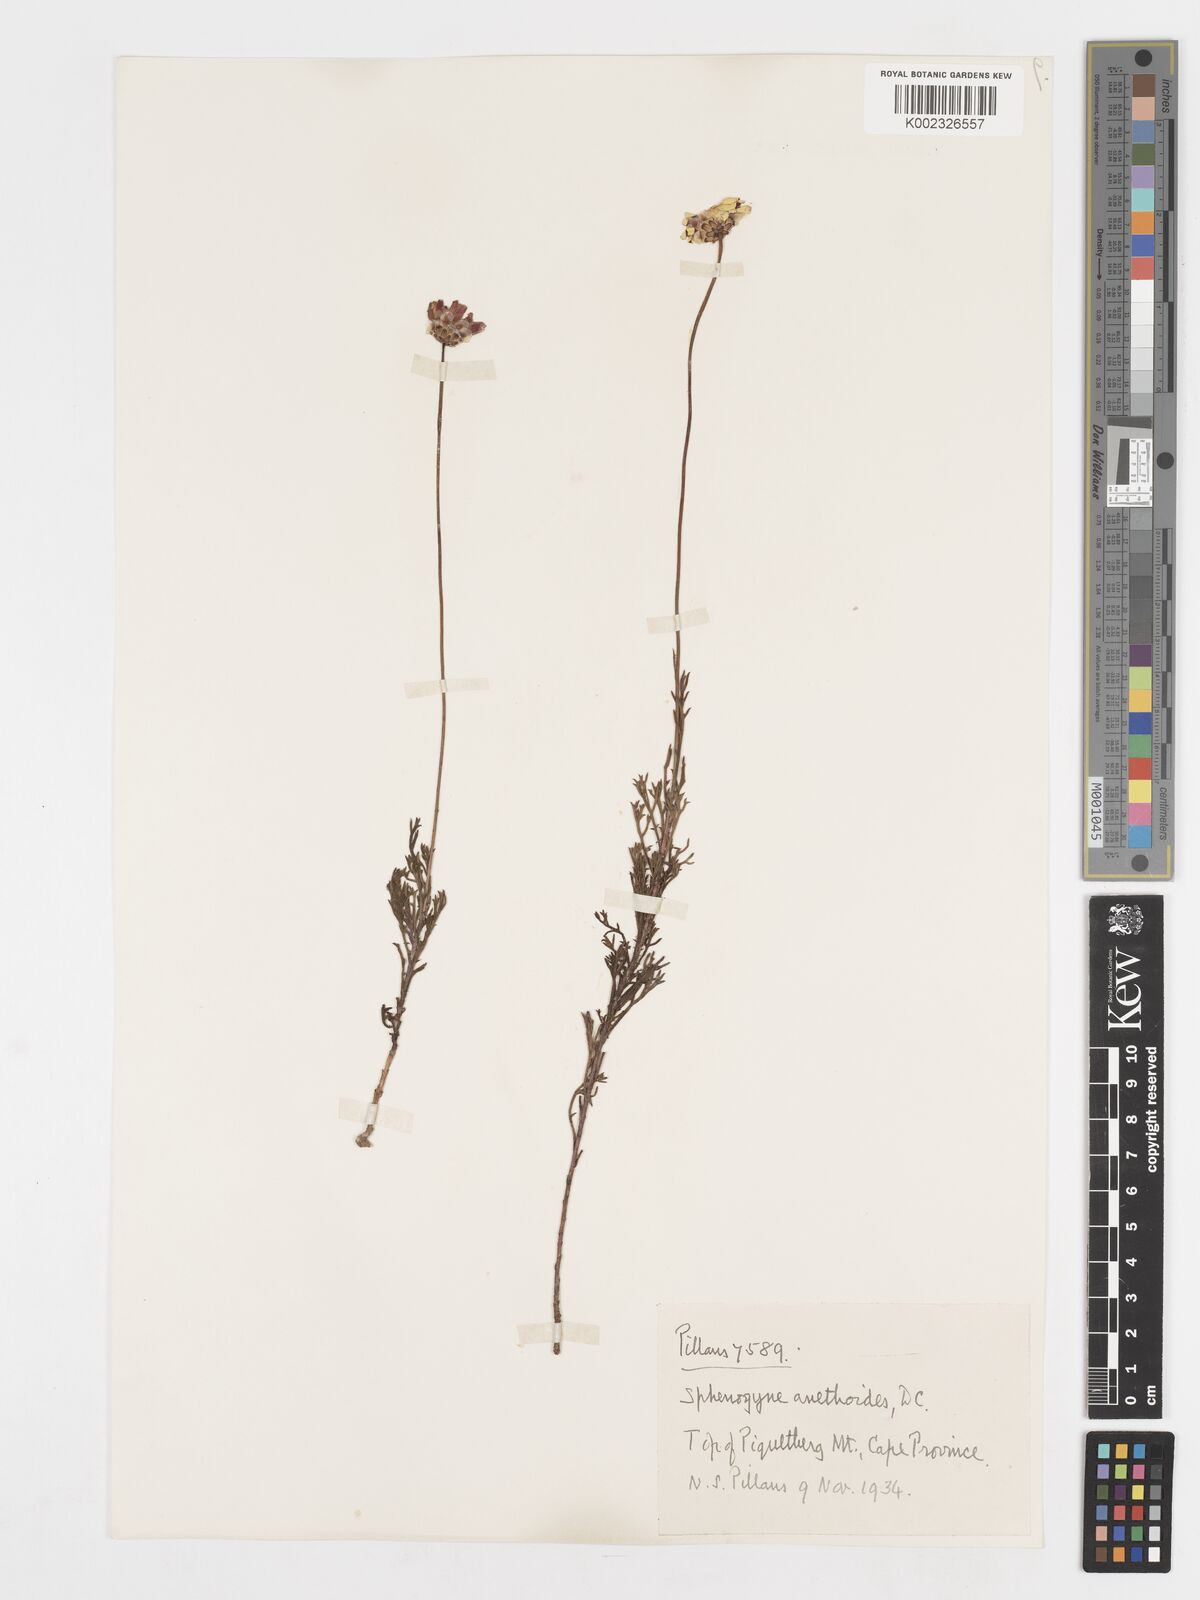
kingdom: Plantae
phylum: Tracheophyta
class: Magnoliopsida
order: Asterales
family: Asteraceae
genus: Ursinia
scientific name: Ursinia anethoides
